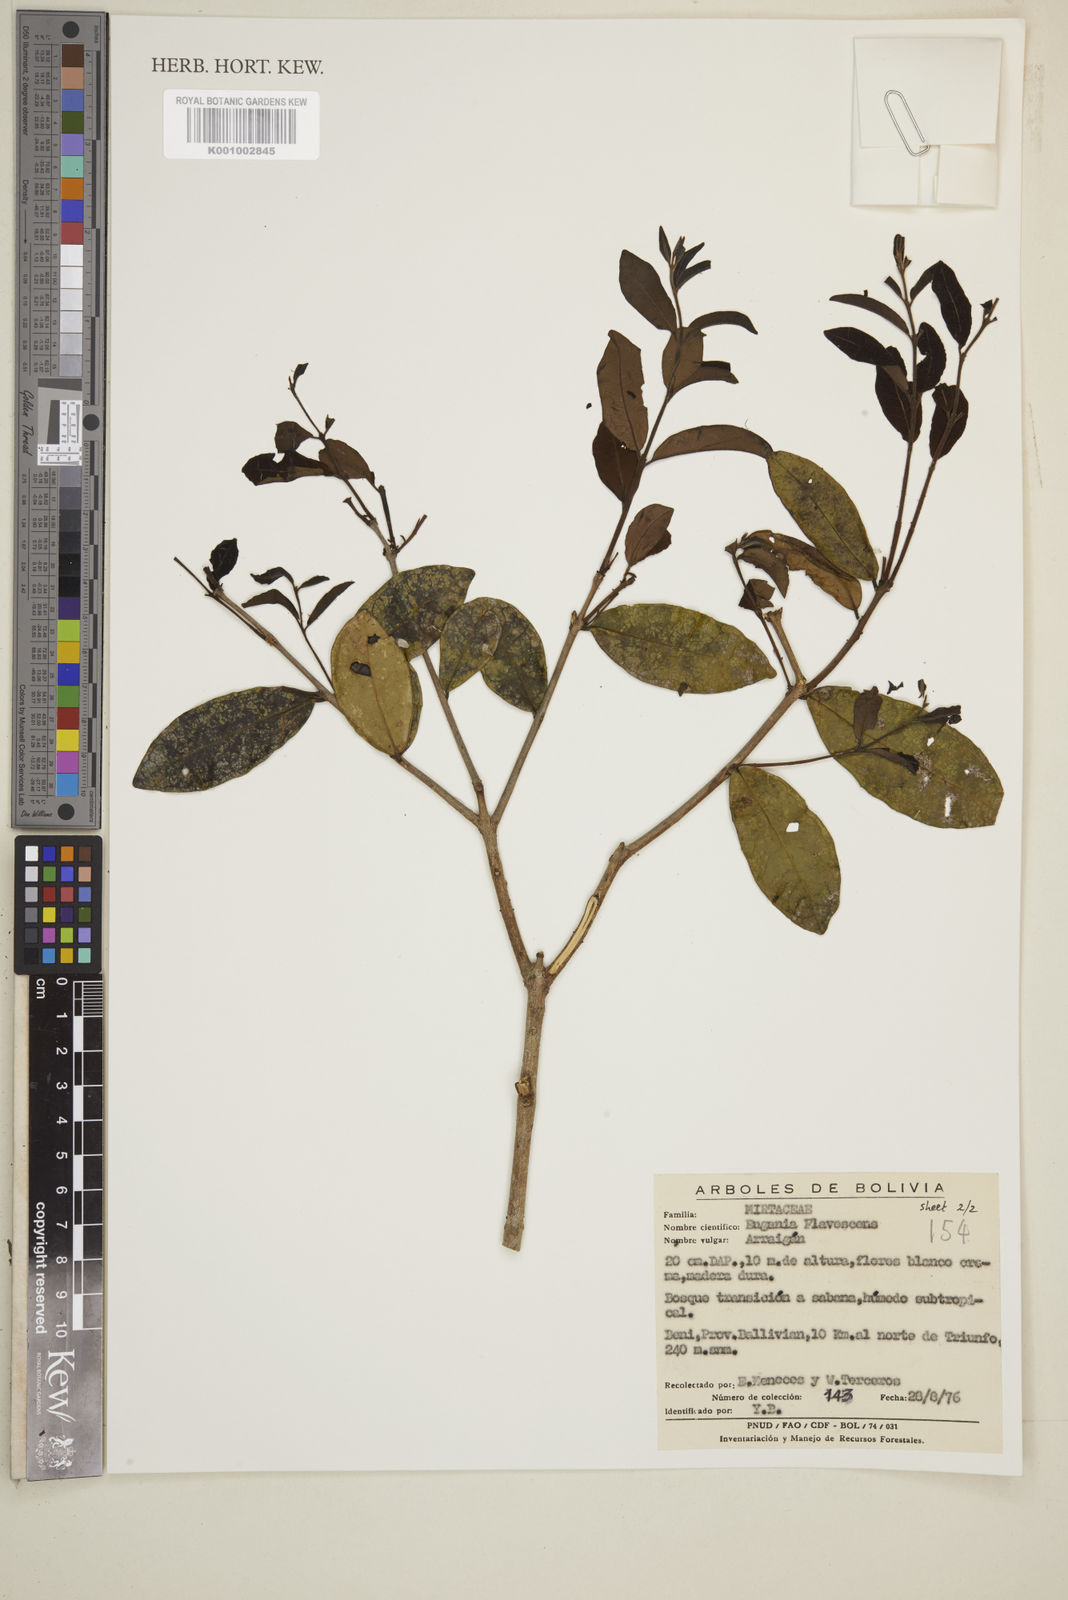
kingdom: Plantae
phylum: Tracheophyta
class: Magnoliopsida
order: Myrtales
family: Myrtaceae
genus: Eugenia
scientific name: Eugenia flavescens
